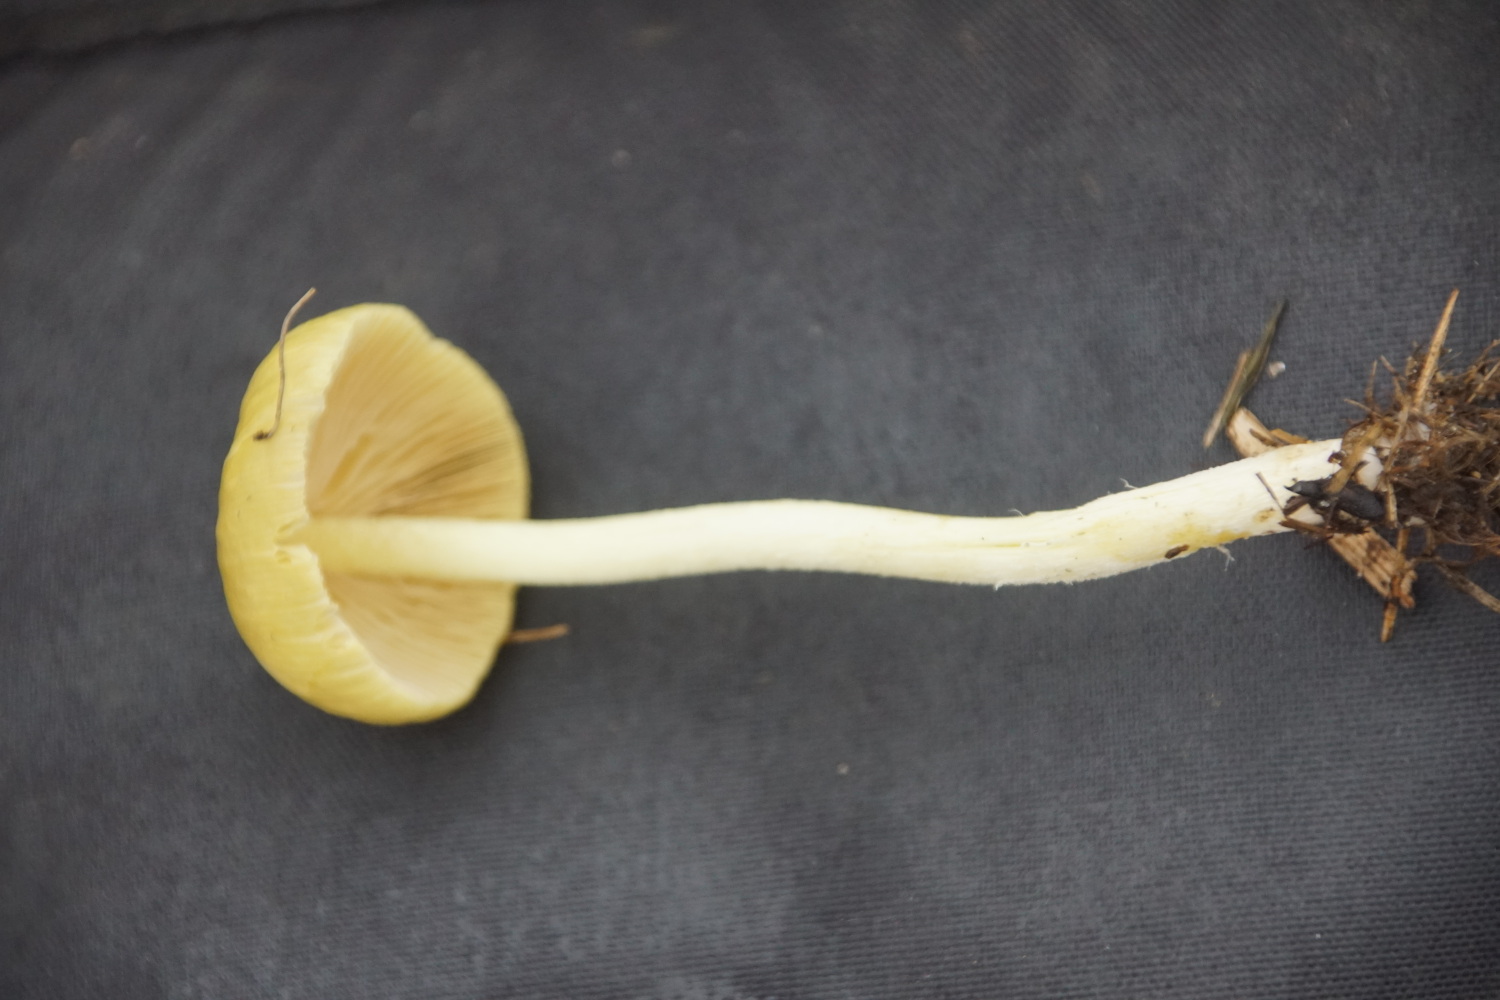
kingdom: Fungi
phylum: Basidiomycota
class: Agaricomycetes
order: Agaricales
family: Bolbitiaceae
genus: Bolbitius
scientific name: Bolbitius titubans
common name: almindelig gulhat
